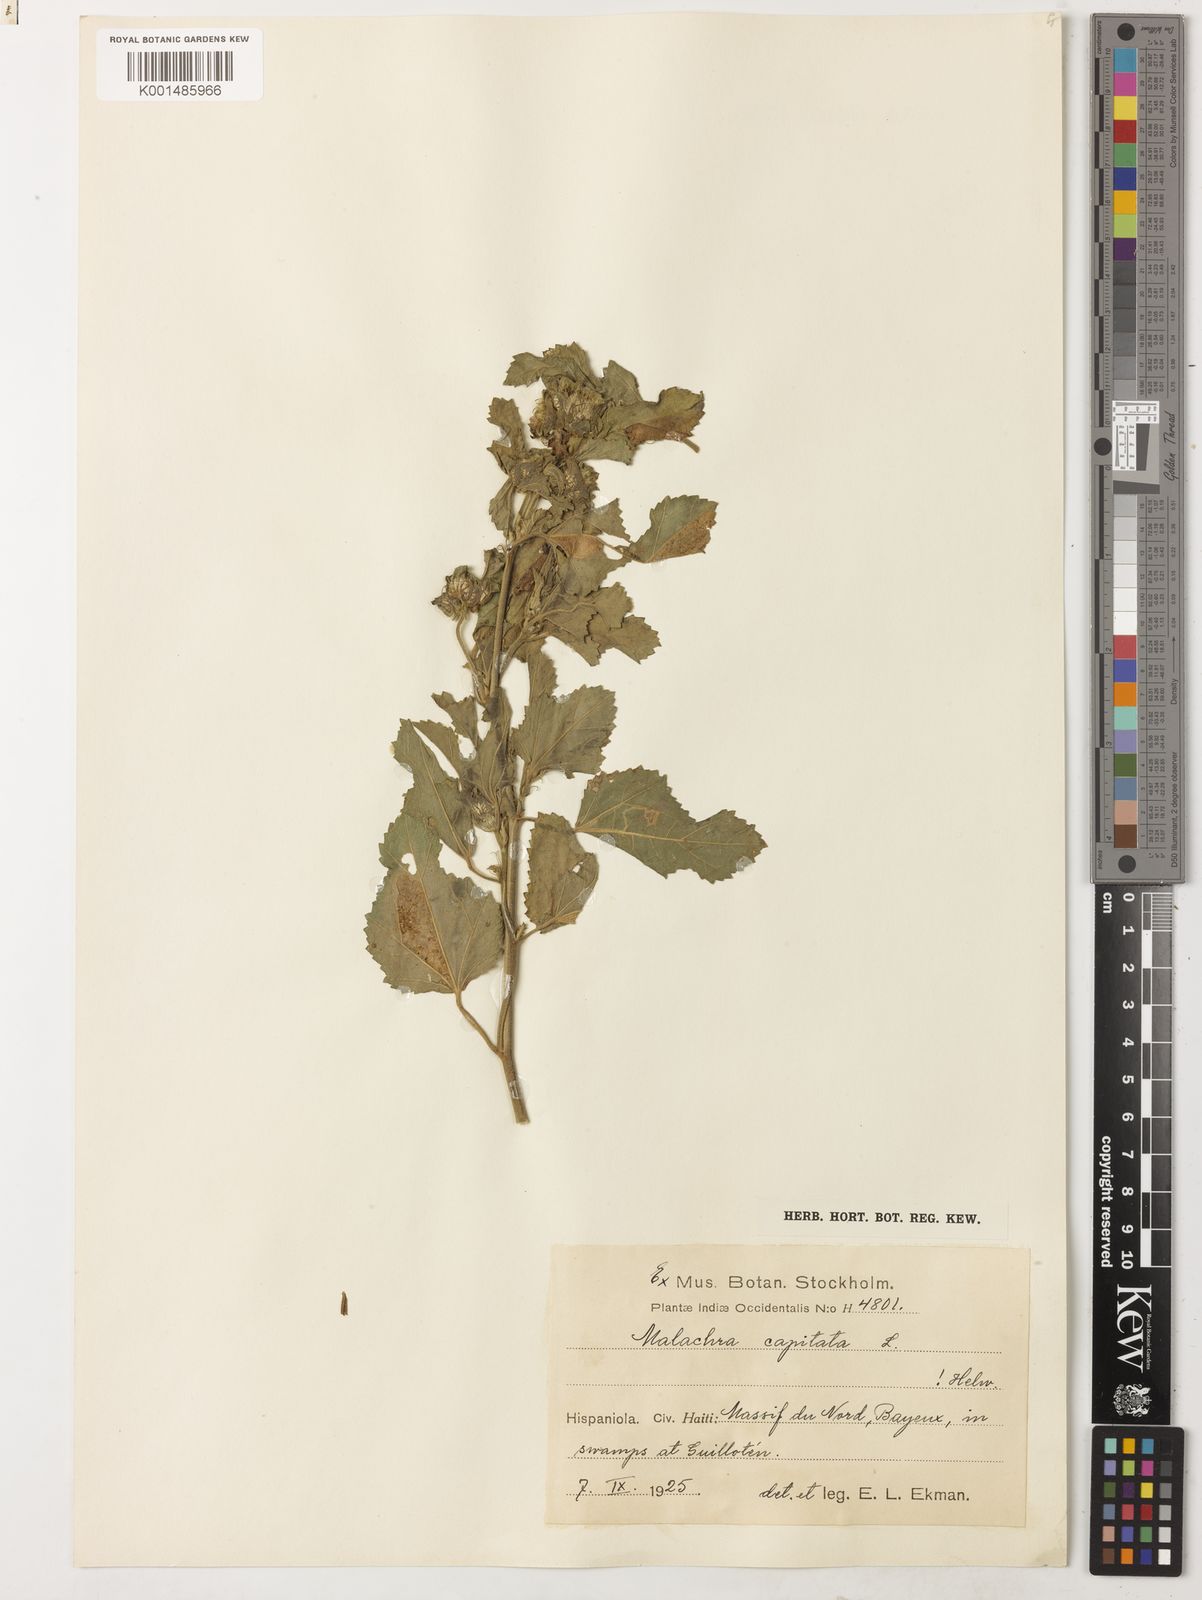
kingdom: Plantae
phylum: Tracheophyta
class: Magnoliopsida
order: Malvales
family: Malvaceae
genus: Malachra
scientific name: Malachra capitata
